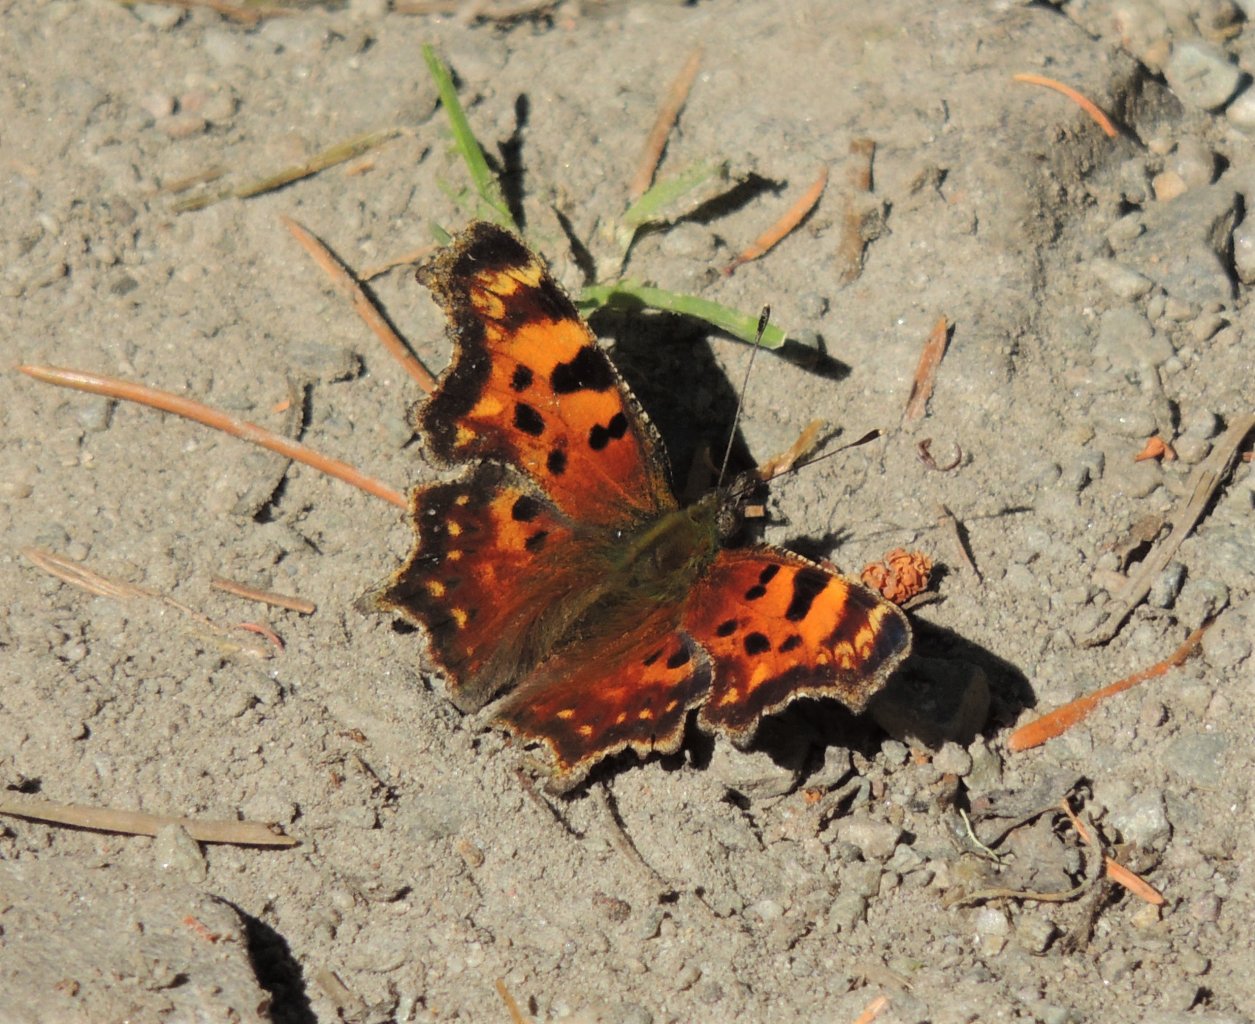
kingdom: Animalia
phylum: Arthropoda
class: Insecta
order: Lepidoptera
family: Nymphalidae
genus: Polygonia
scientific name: Polygonia faunus
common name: Green Comma
